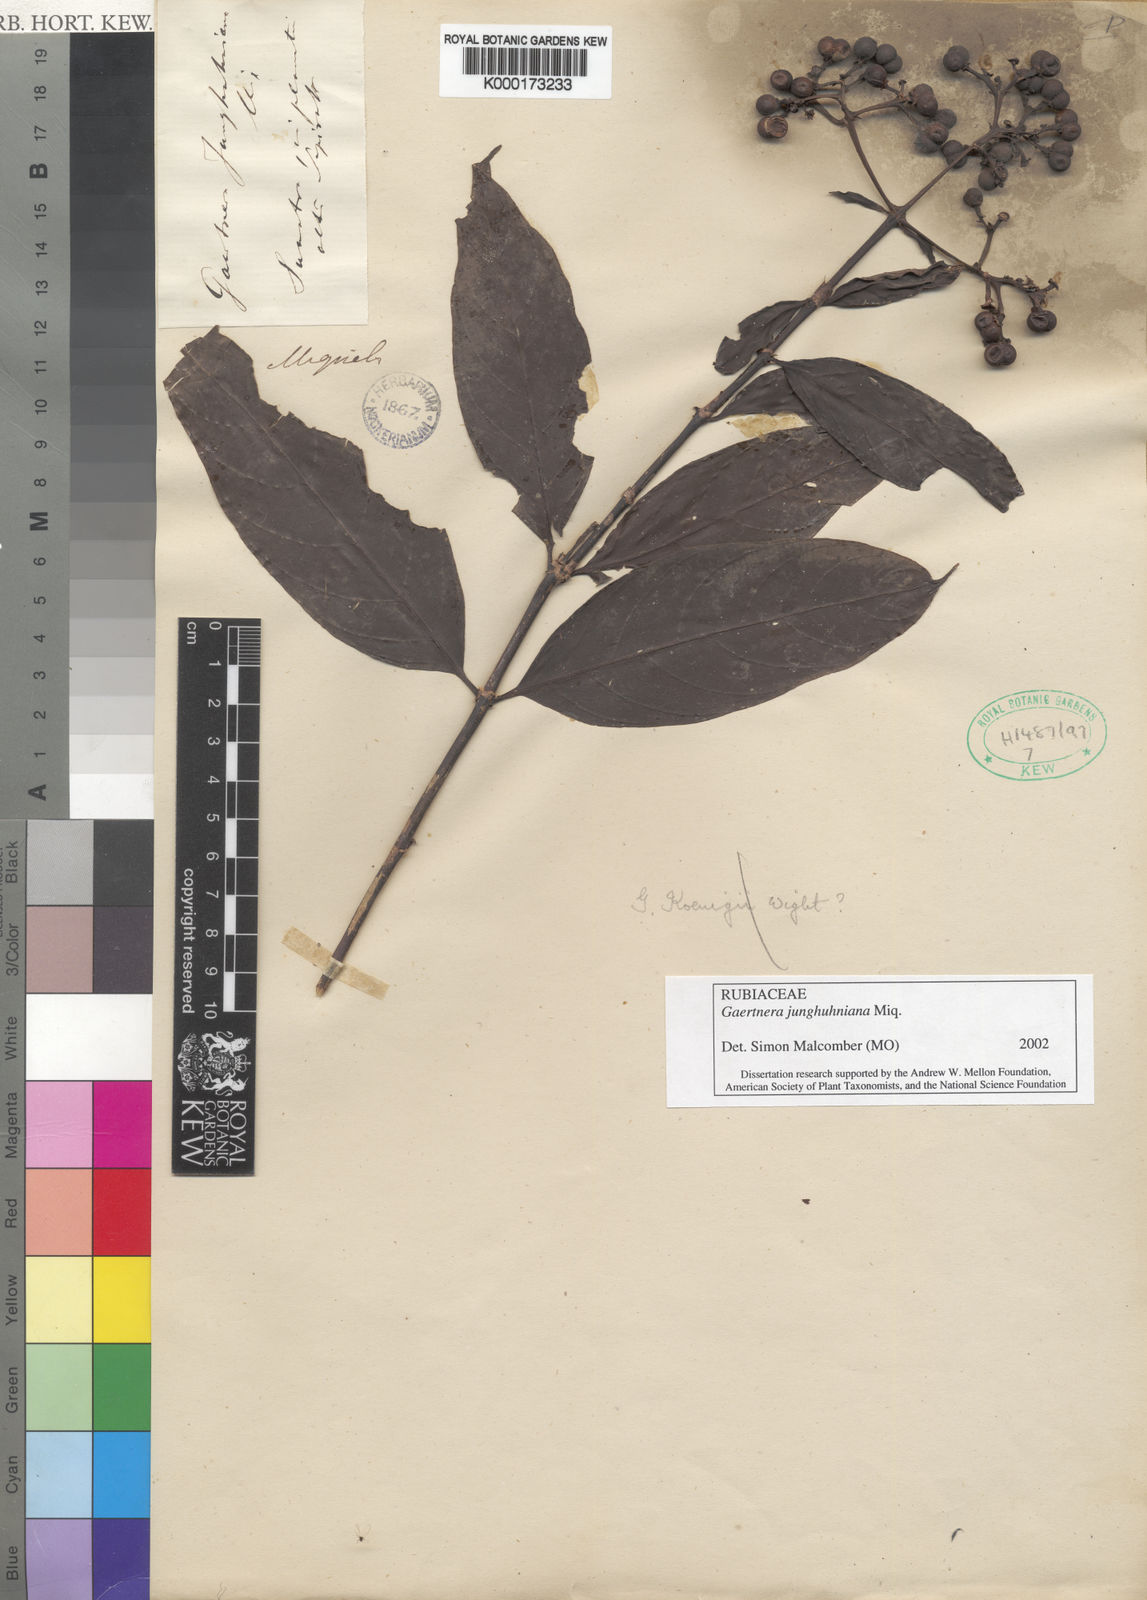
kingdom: Plantae
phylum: Tracheophyta
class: Magnoliopsida
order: Gentianales
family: Rubiaceae
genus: Gaertnera
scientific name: Gaertnera vaginans
